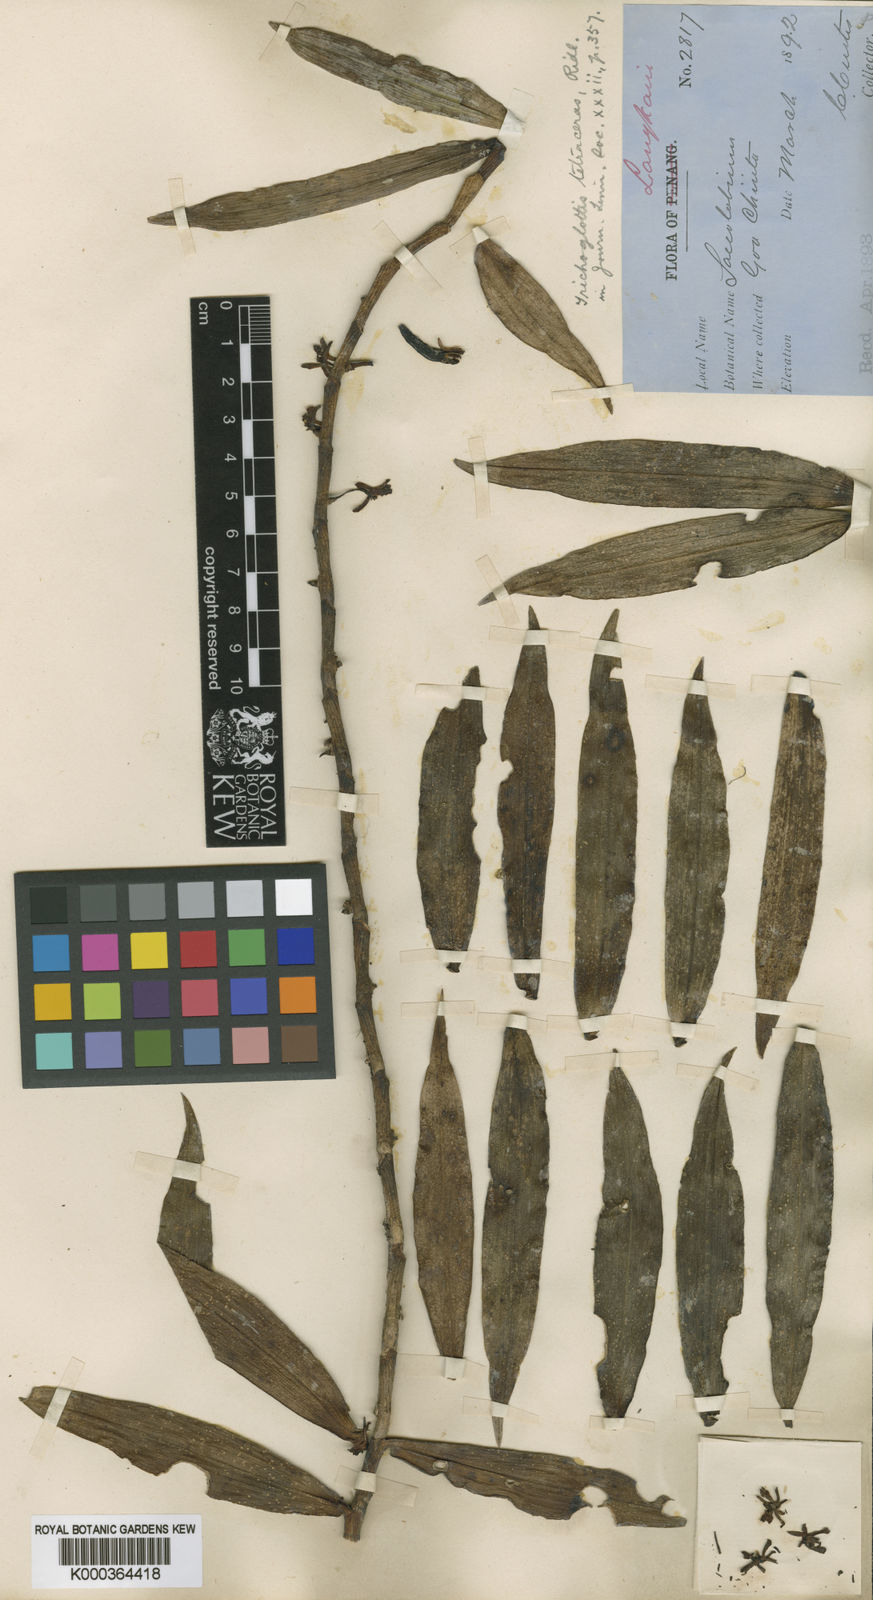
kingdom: Plantae
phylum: Tracheophyta
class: Liliopsida
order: Asparagales
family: Orchidaceae
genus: Trichoglottis
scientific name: Trichoglottis orchidea
